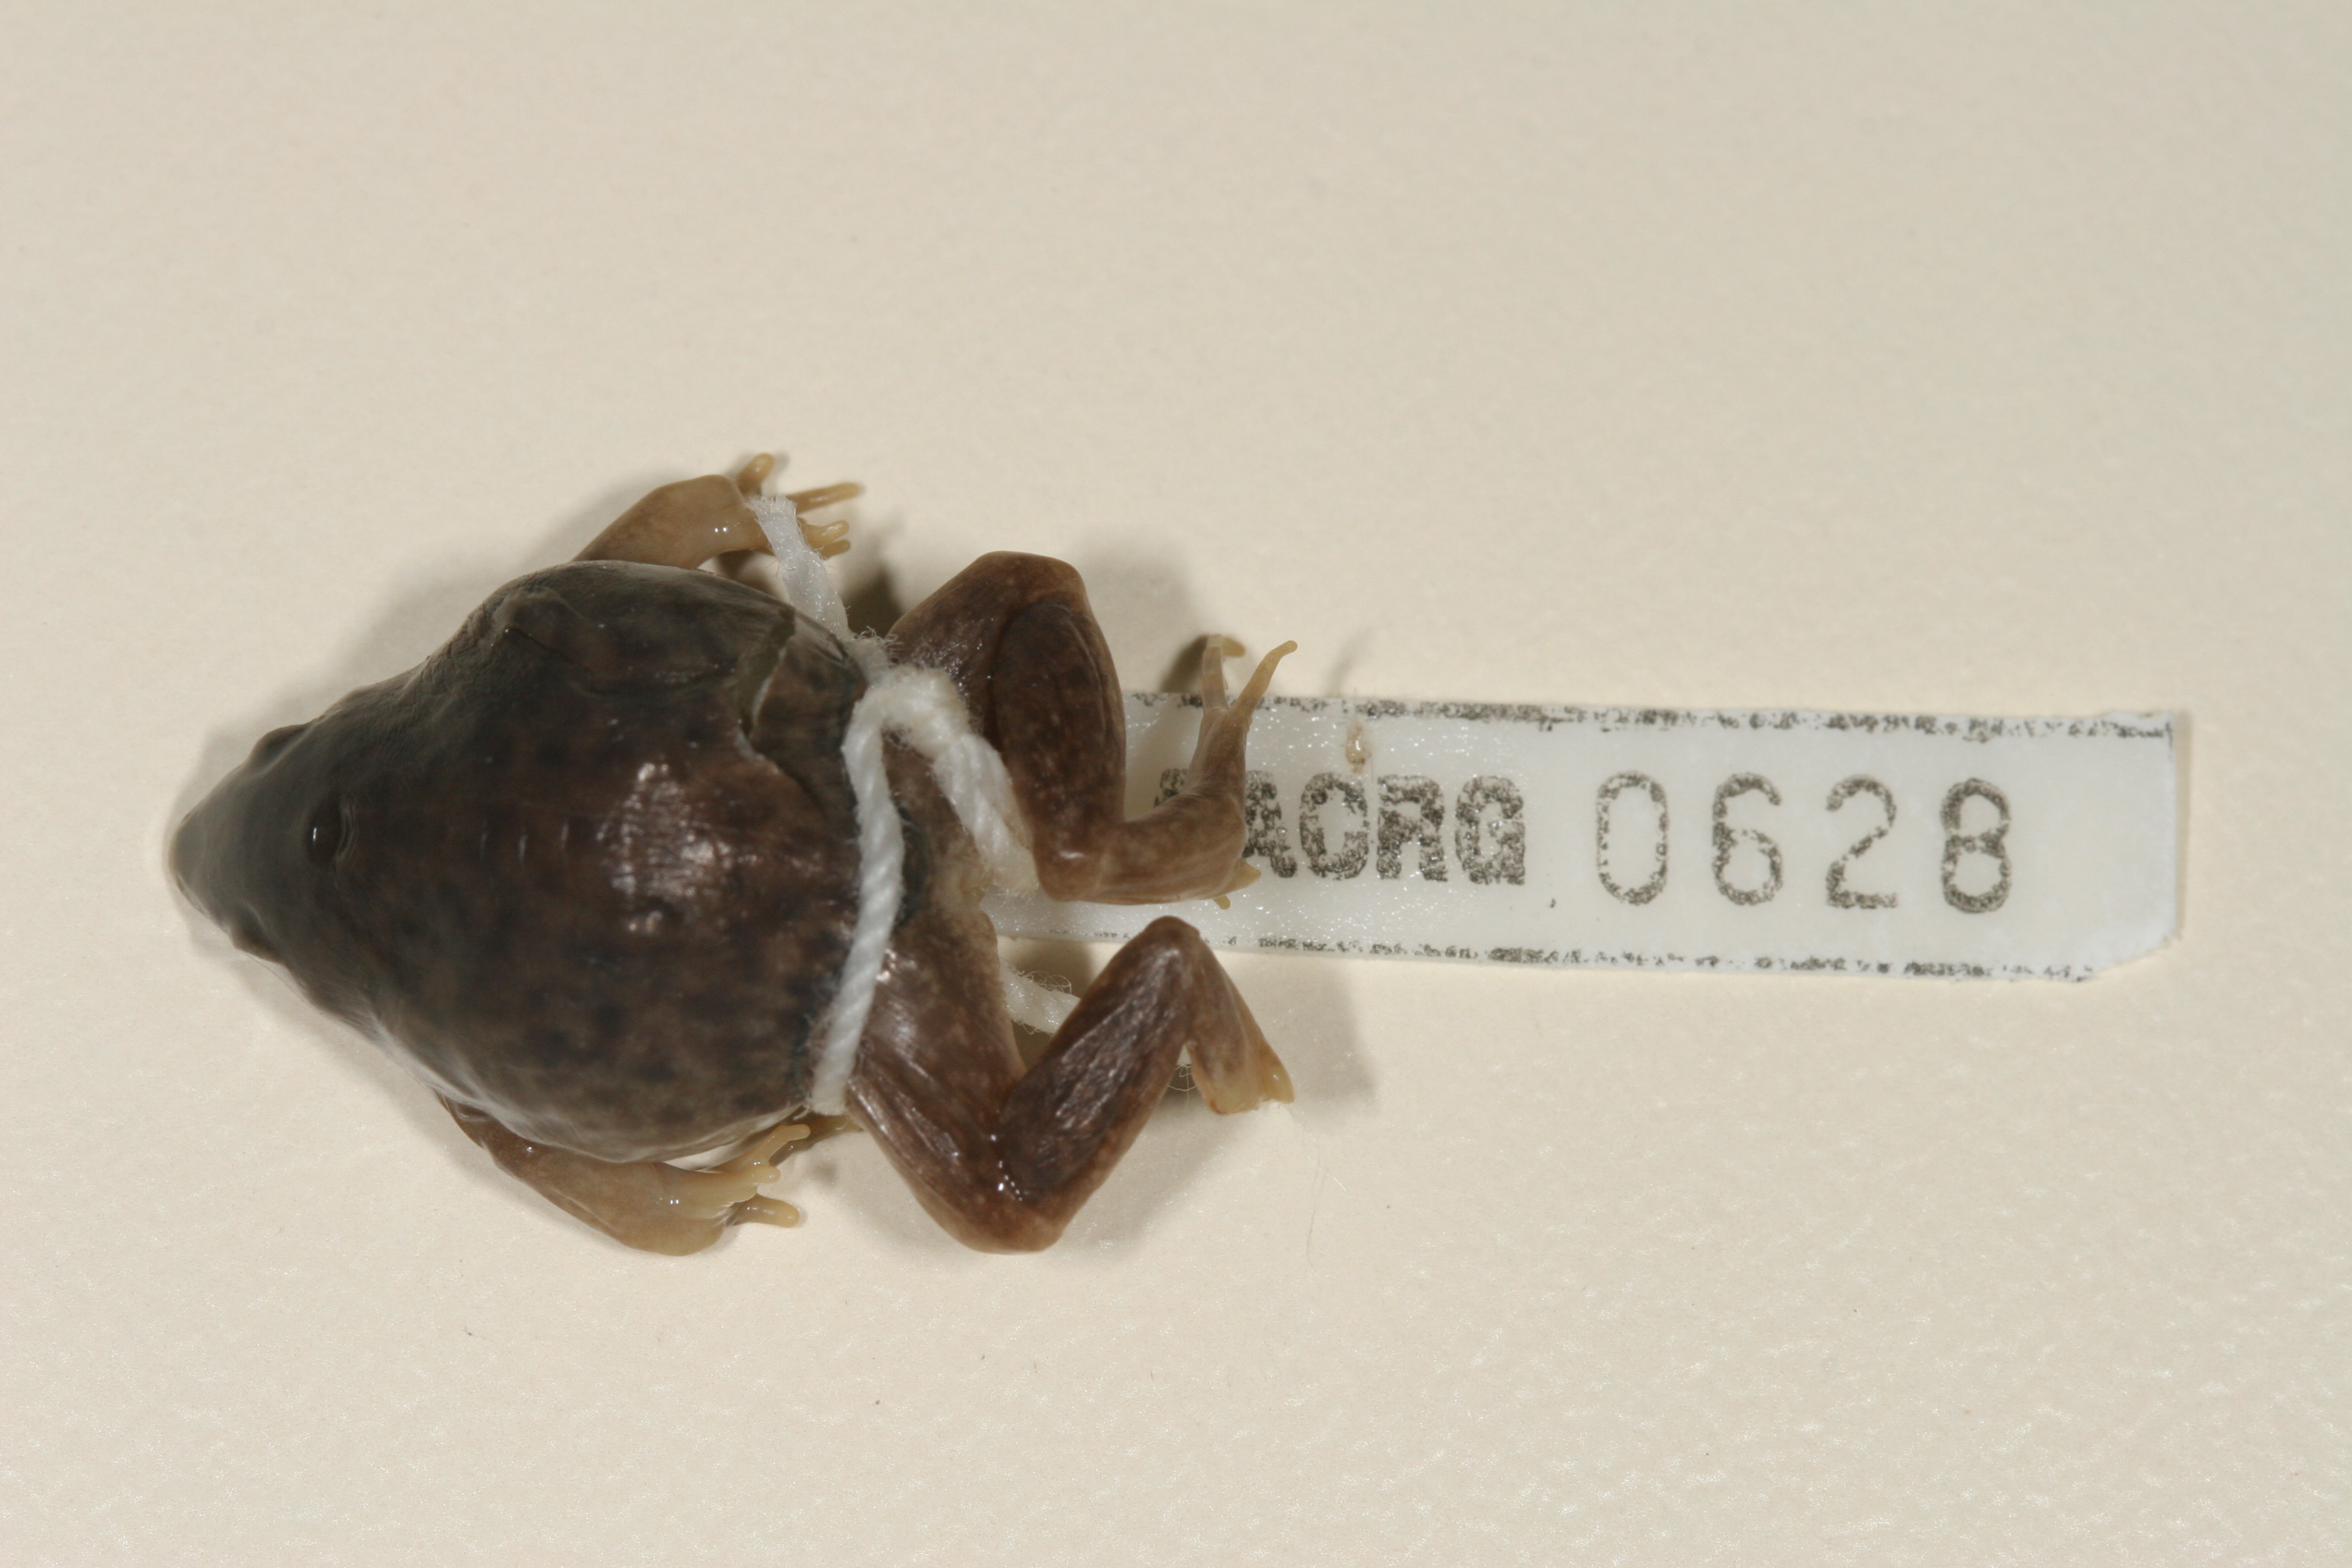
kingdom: Animalia
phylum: Chordata
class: Amphibia
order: Anura
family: Hemisotidae
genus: Hemisus
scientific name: Hemisus marmoratus
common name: Mottled shovel-nosed frog
